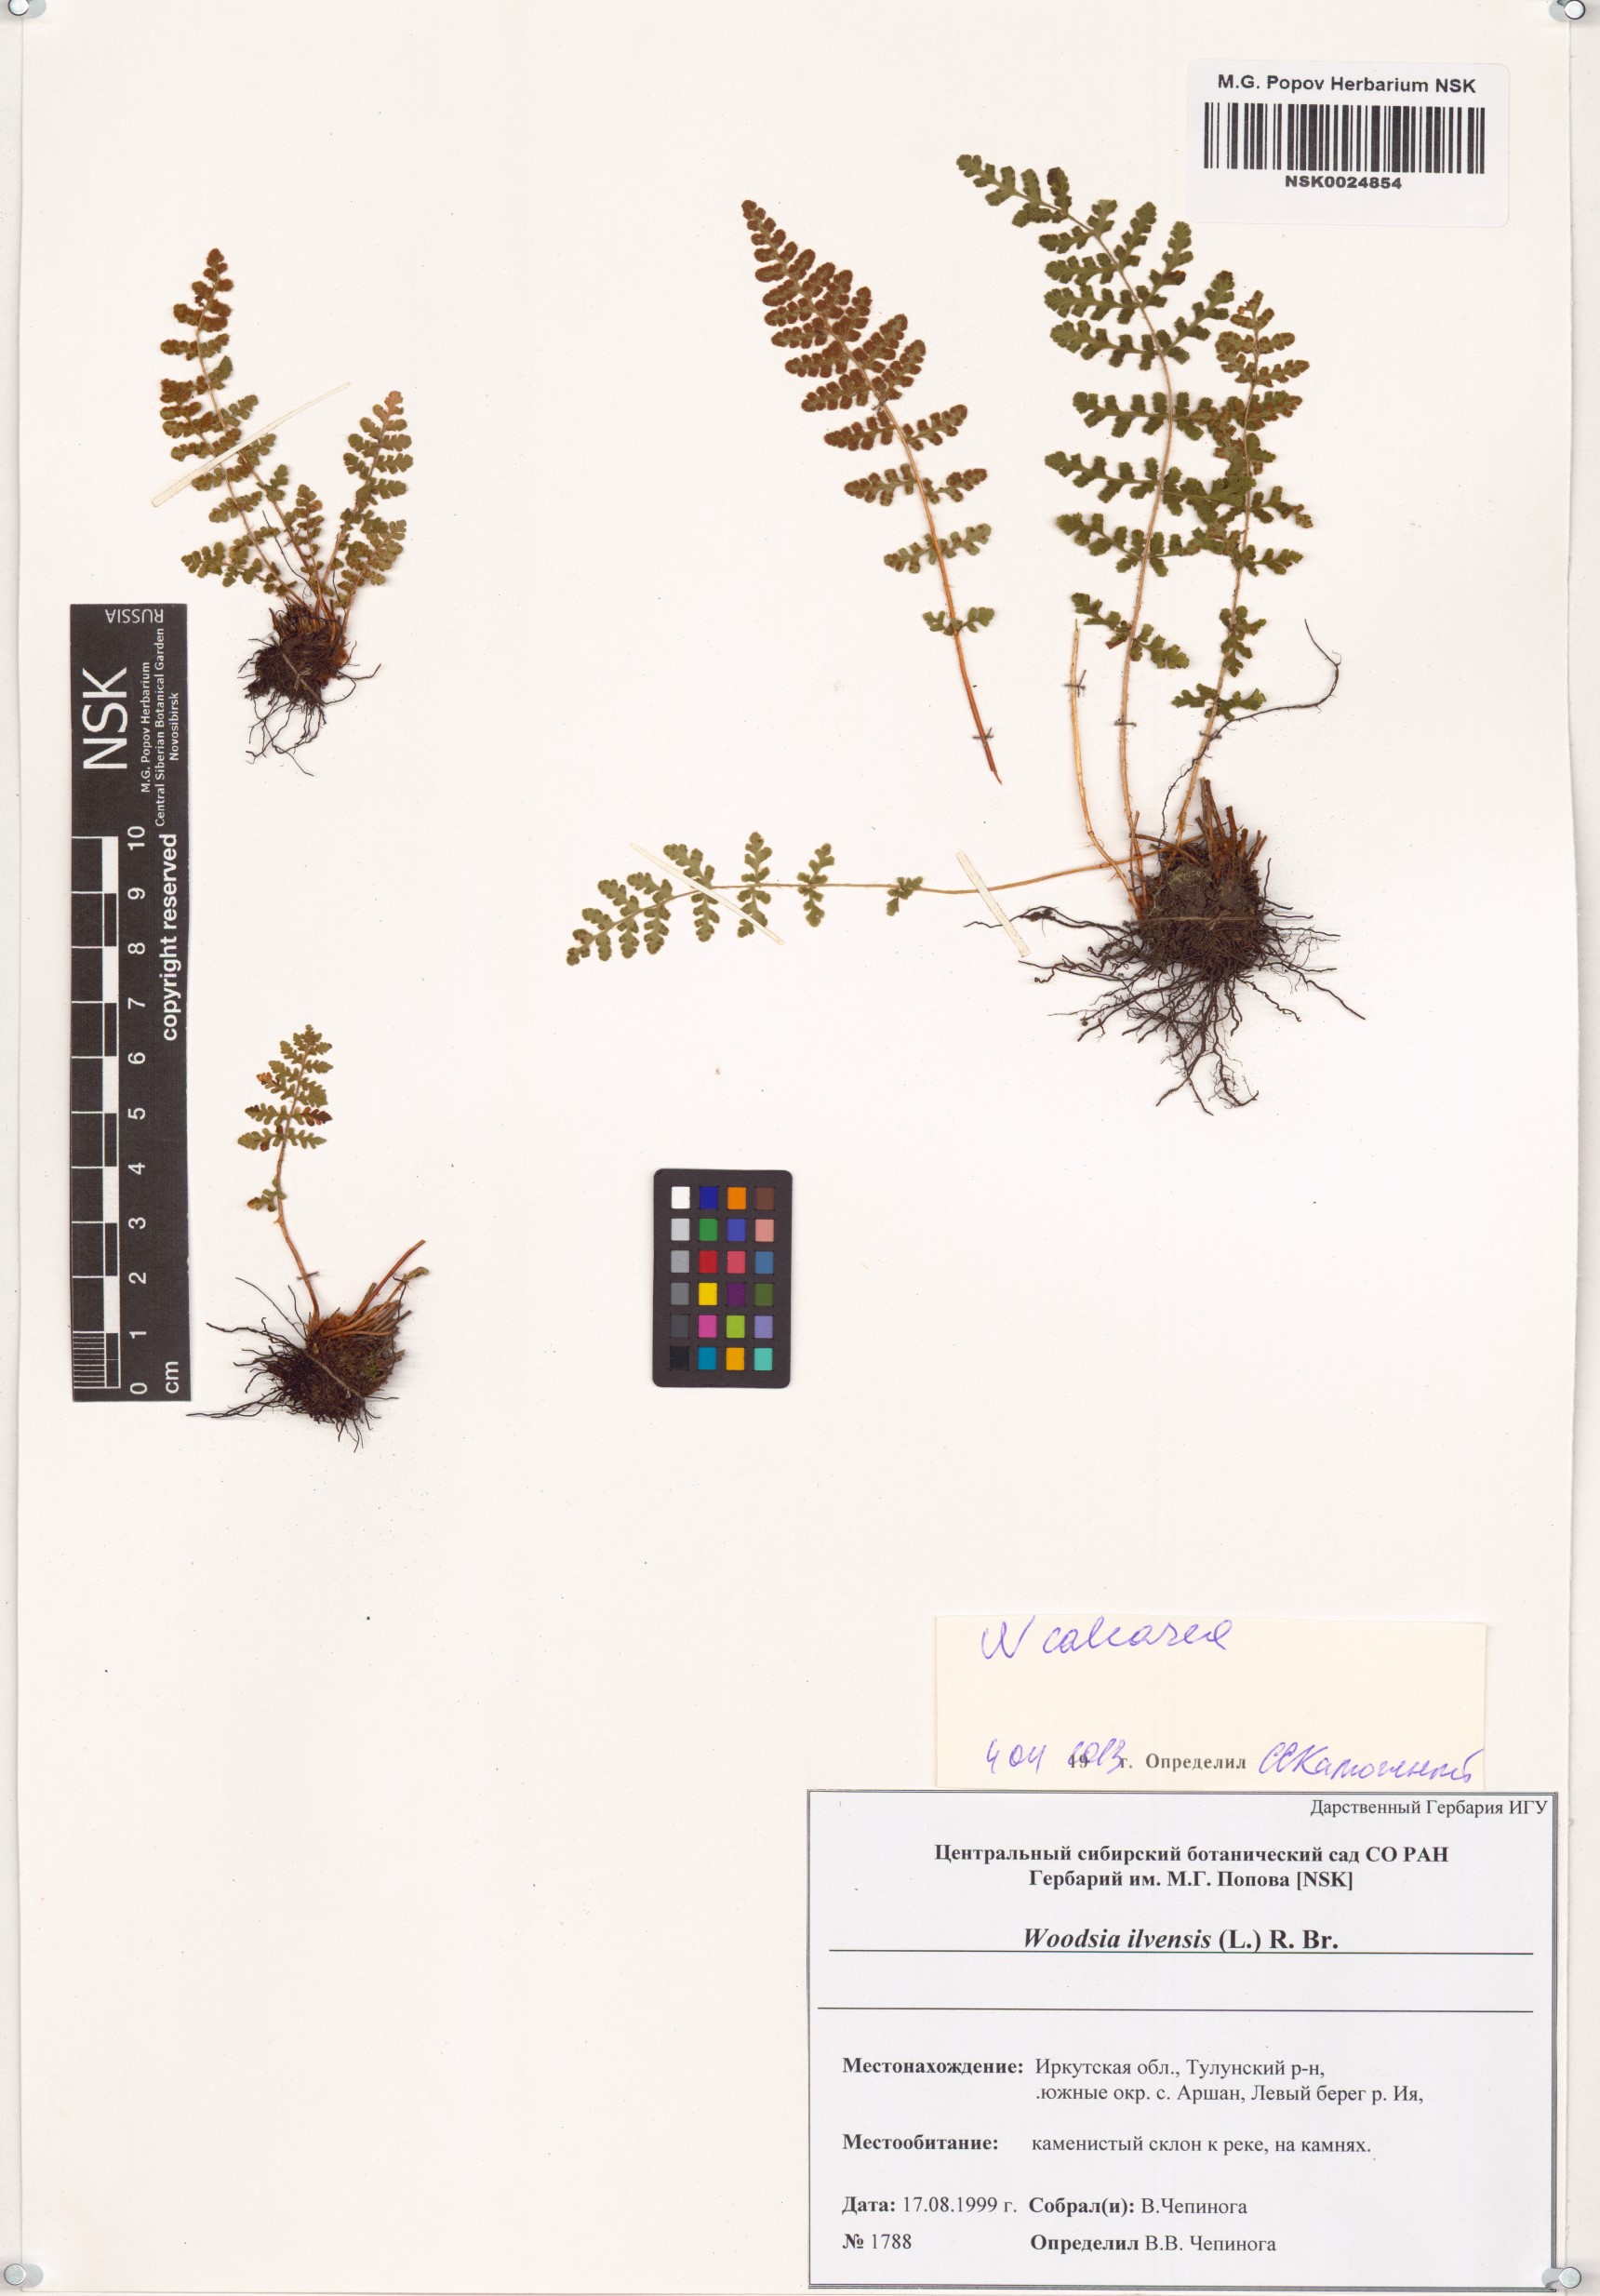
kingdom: Plantae
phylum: Tracheophyta
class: Polypodiopsida
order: Polypodiales
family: Woodsiaceae
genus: Woodsia
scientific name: Woodsia calcarea
